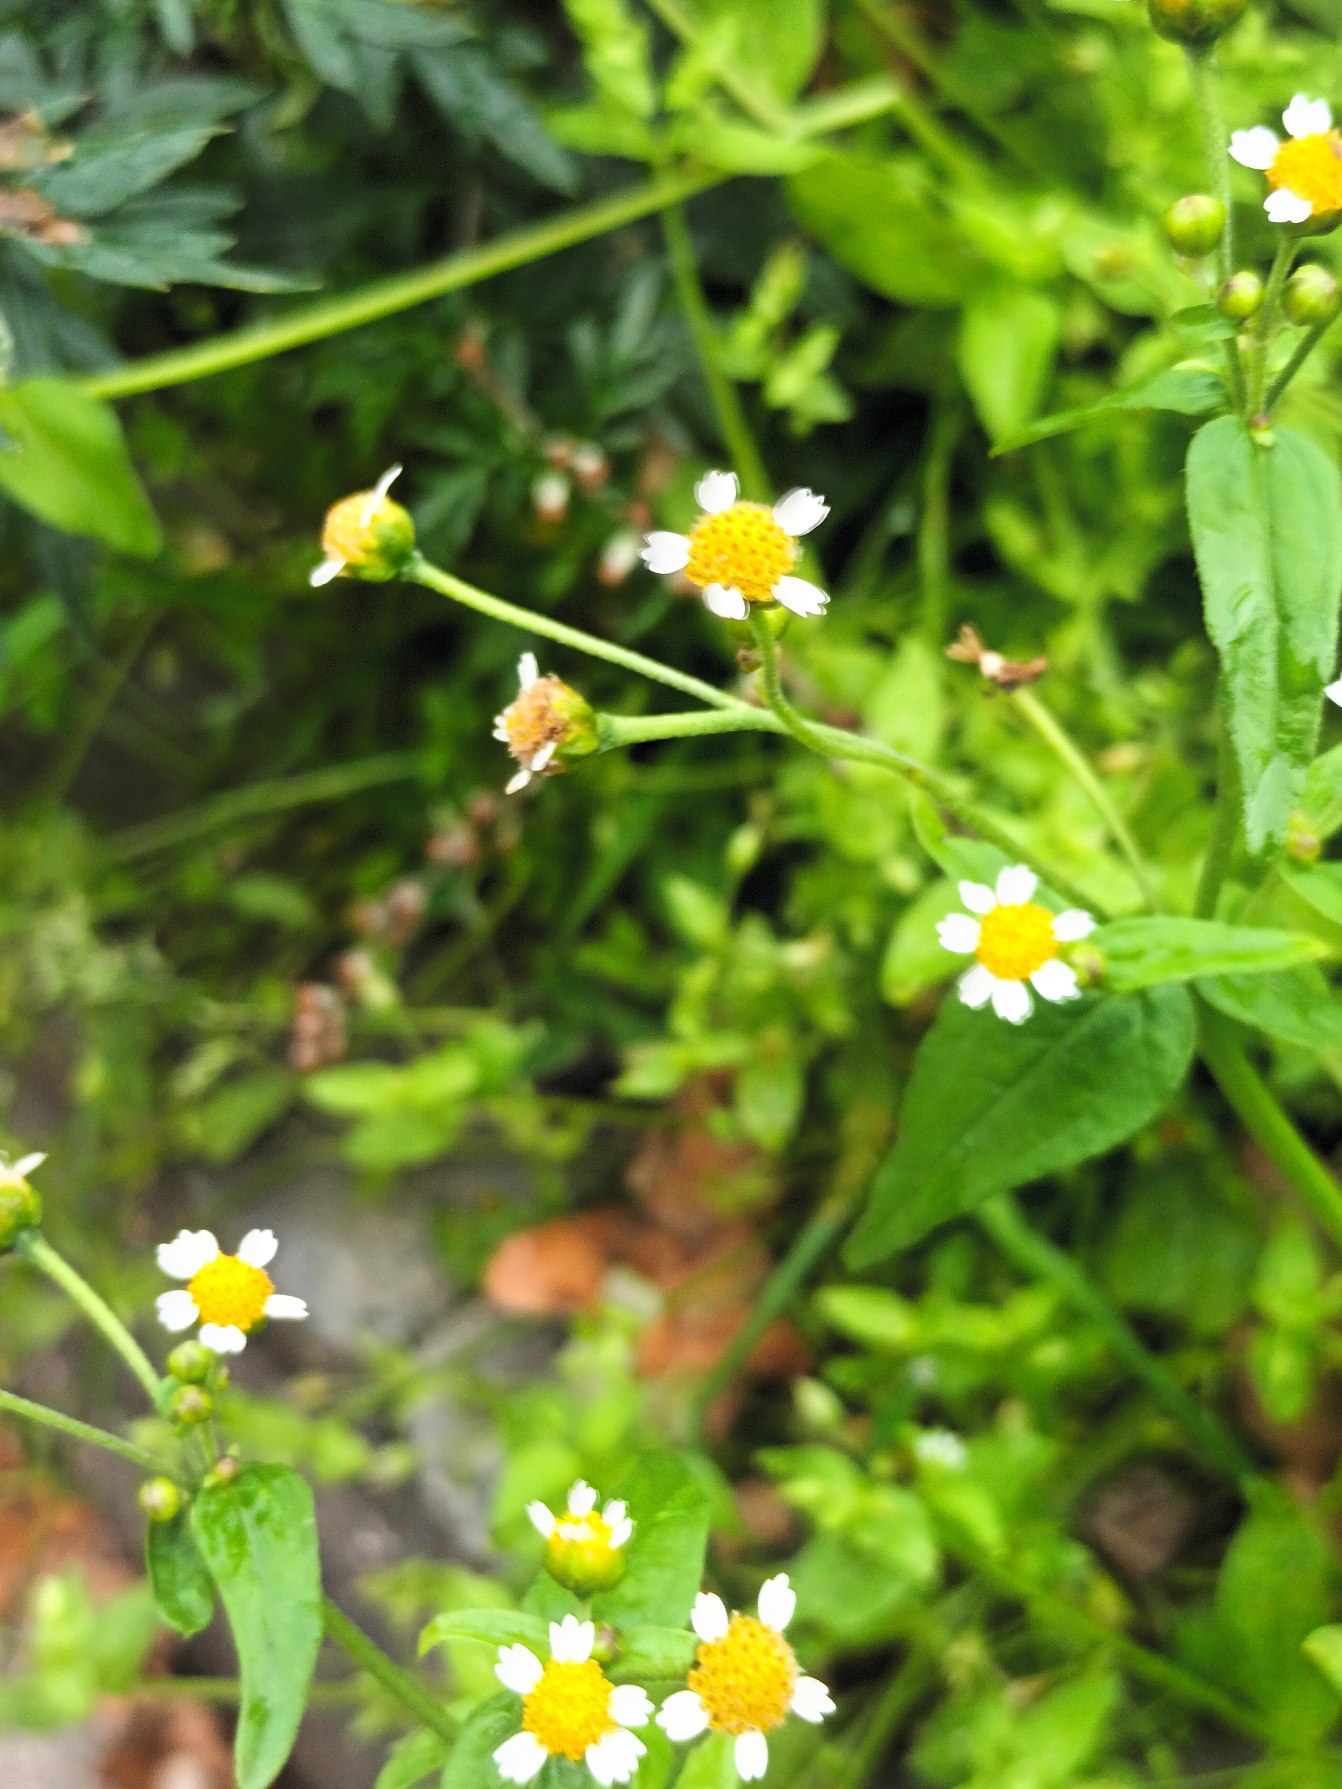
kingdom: Plantae
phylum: Tracheophyta
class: Magnoliopsida
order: Asterales
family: Asteraceae
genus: Galinsoga
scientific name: Galinsoga parviflora
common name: Håret kortstråle
